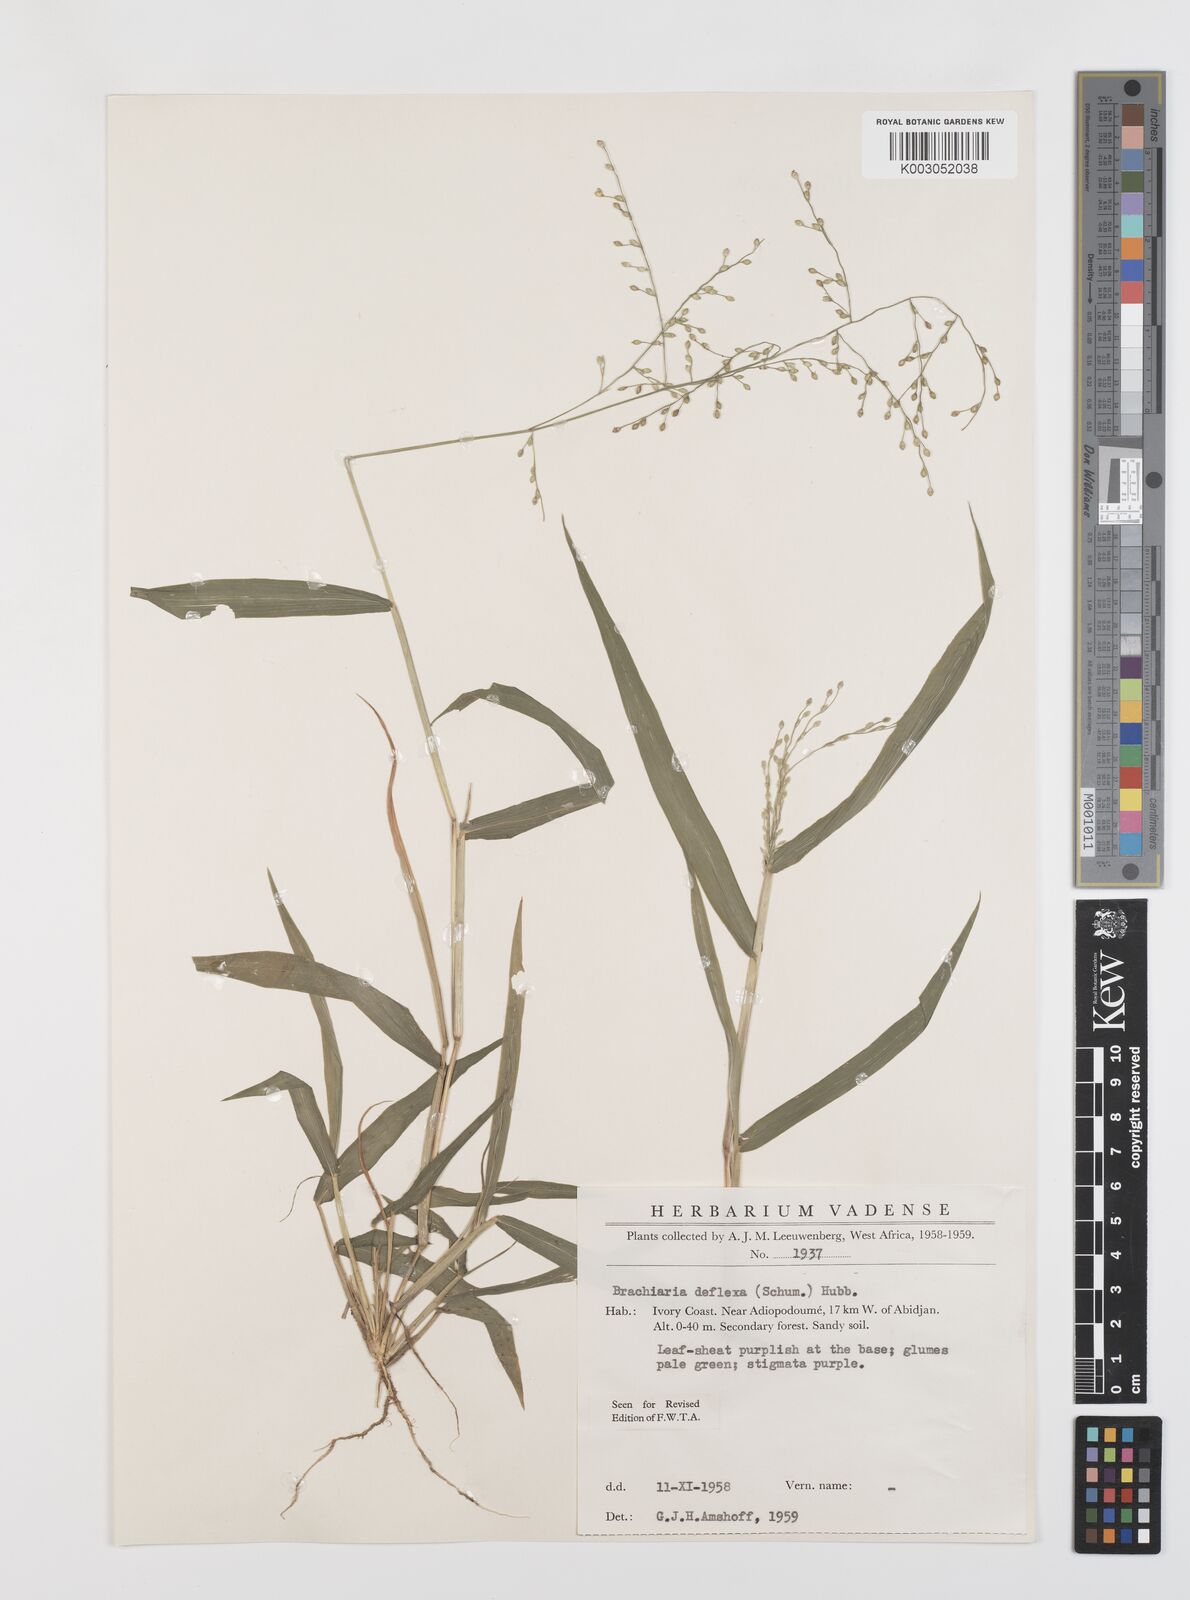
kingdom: Plantae
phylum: Tracheophyta
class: Liliopsida
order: Poales
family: Poaceae
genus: Urochloa
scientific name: Urochloa deflexa
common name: Guinea millet
